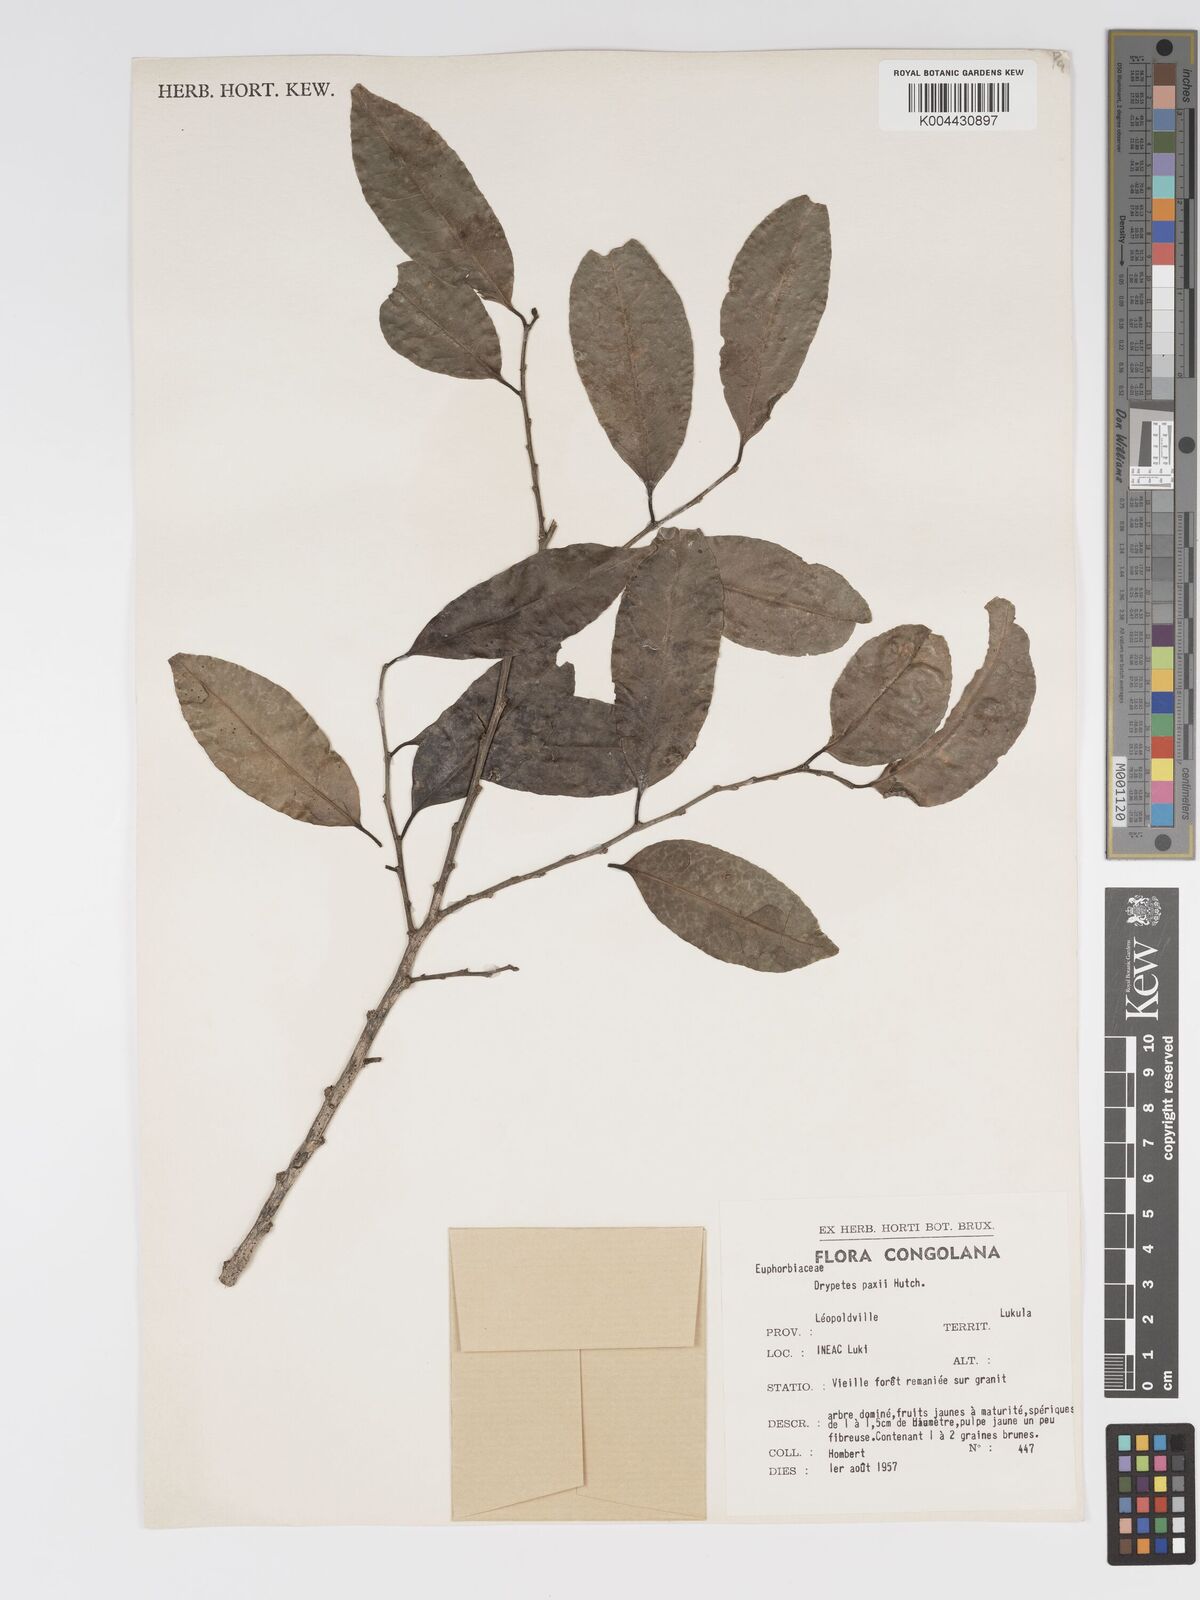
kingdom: Plantae
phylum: Tracheophyta
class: Magnoliopsida
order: Malpighiales
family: Putranjivaceae
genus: Drypetes
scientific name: Drypetes paxii
